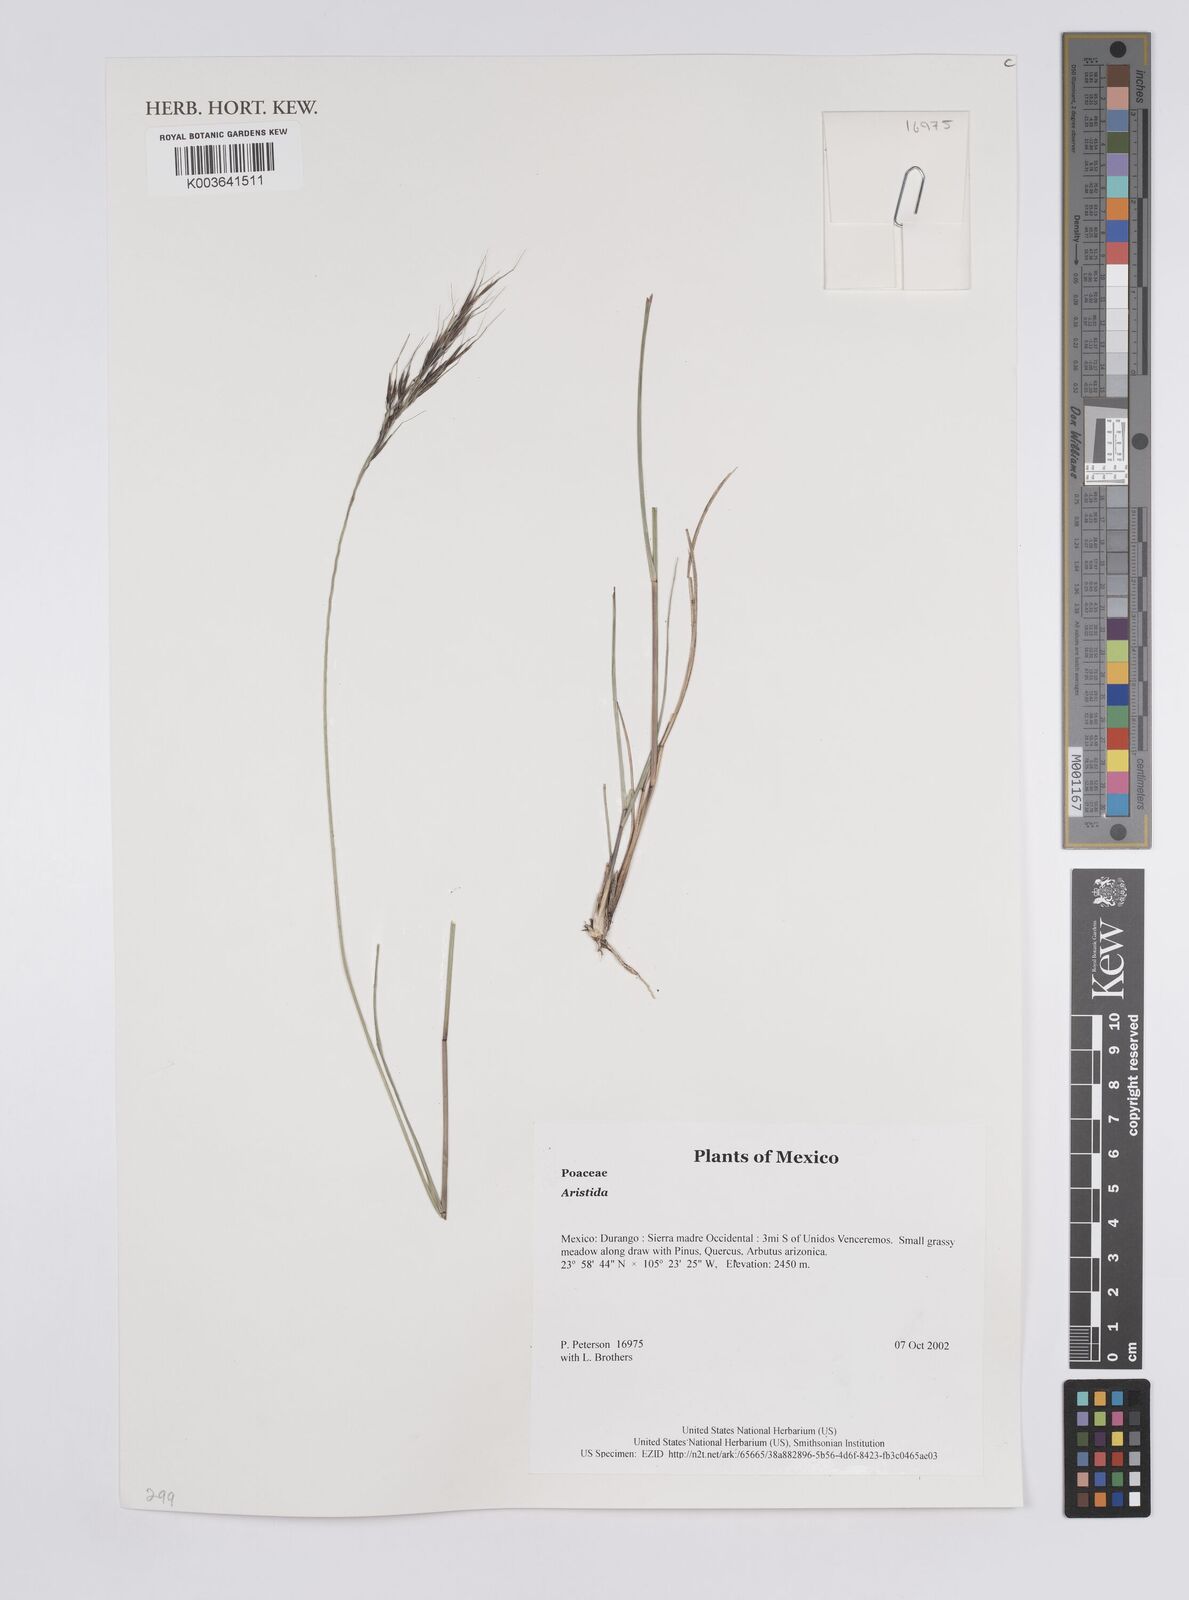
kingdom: Plantae
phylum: Tracheophyta
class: Liliopsida
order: Poales
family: Poaceae
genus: Aristida
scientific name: Aristida
